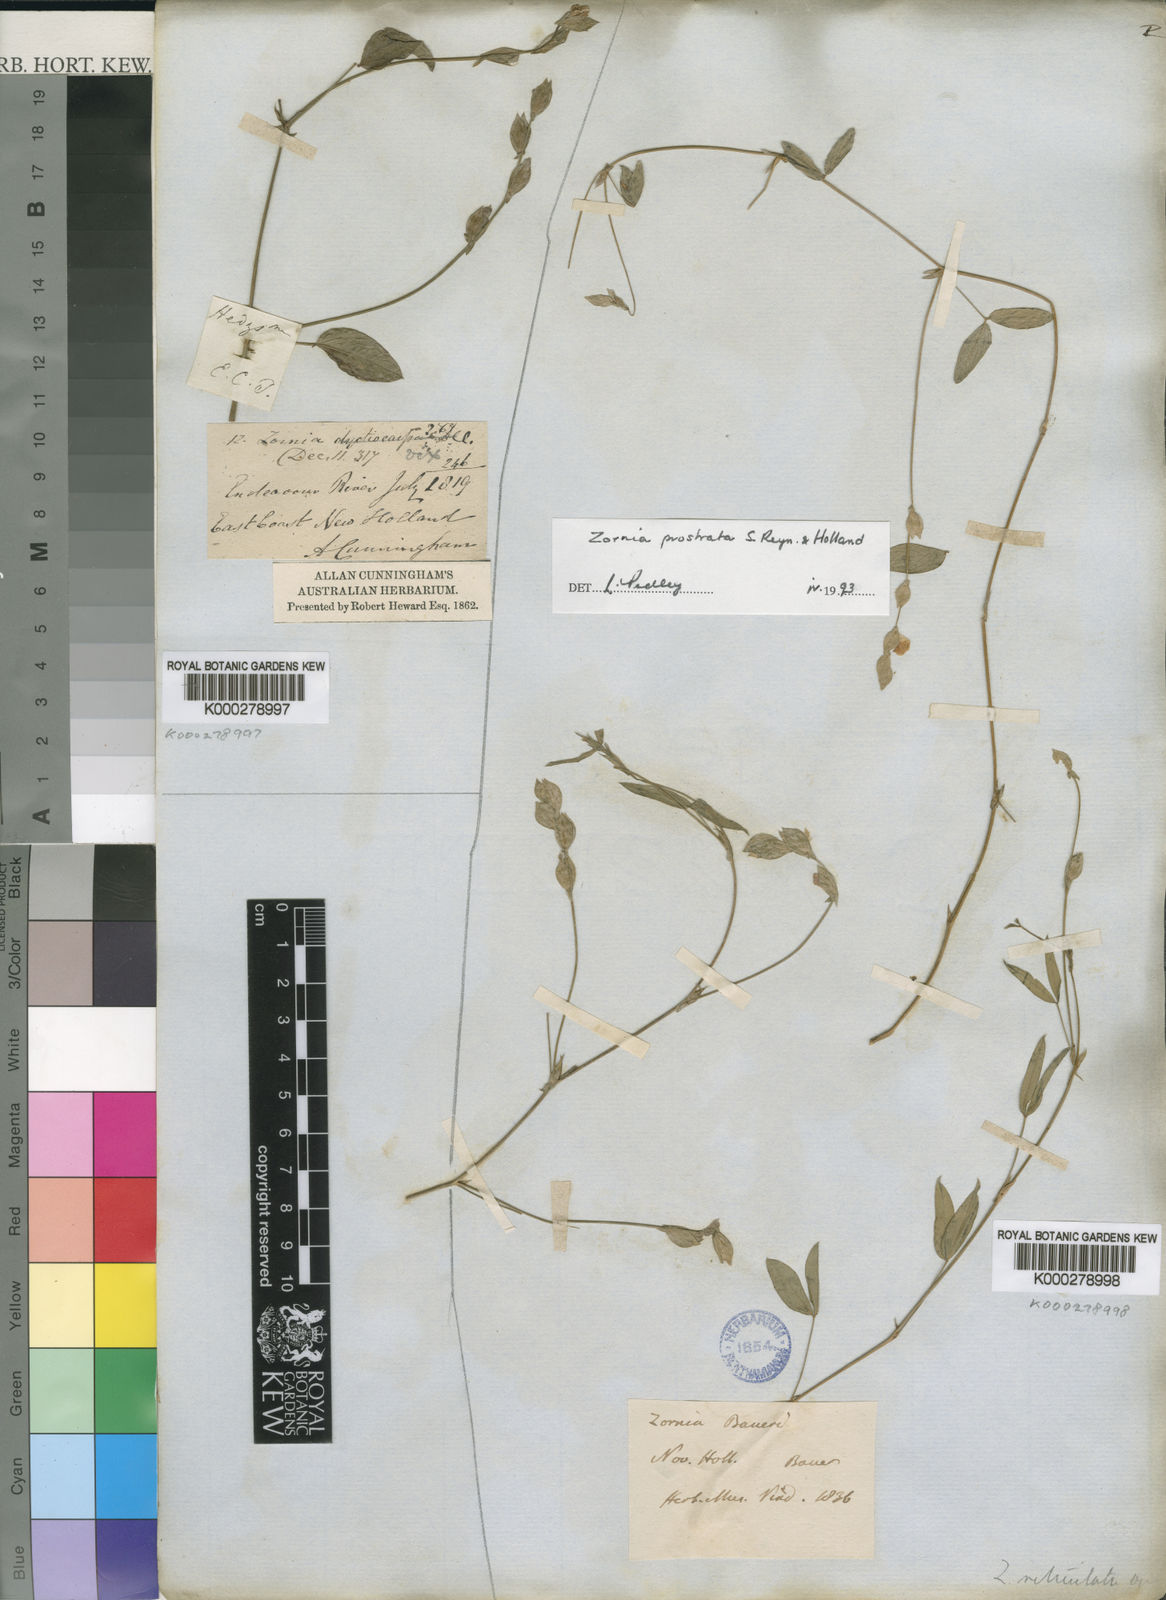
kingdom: Plantae
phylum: Tracheophyta
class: Magnoliopsida
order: Fabales
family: Fabaceae
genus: Zornia
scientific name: Zornia prostrata
